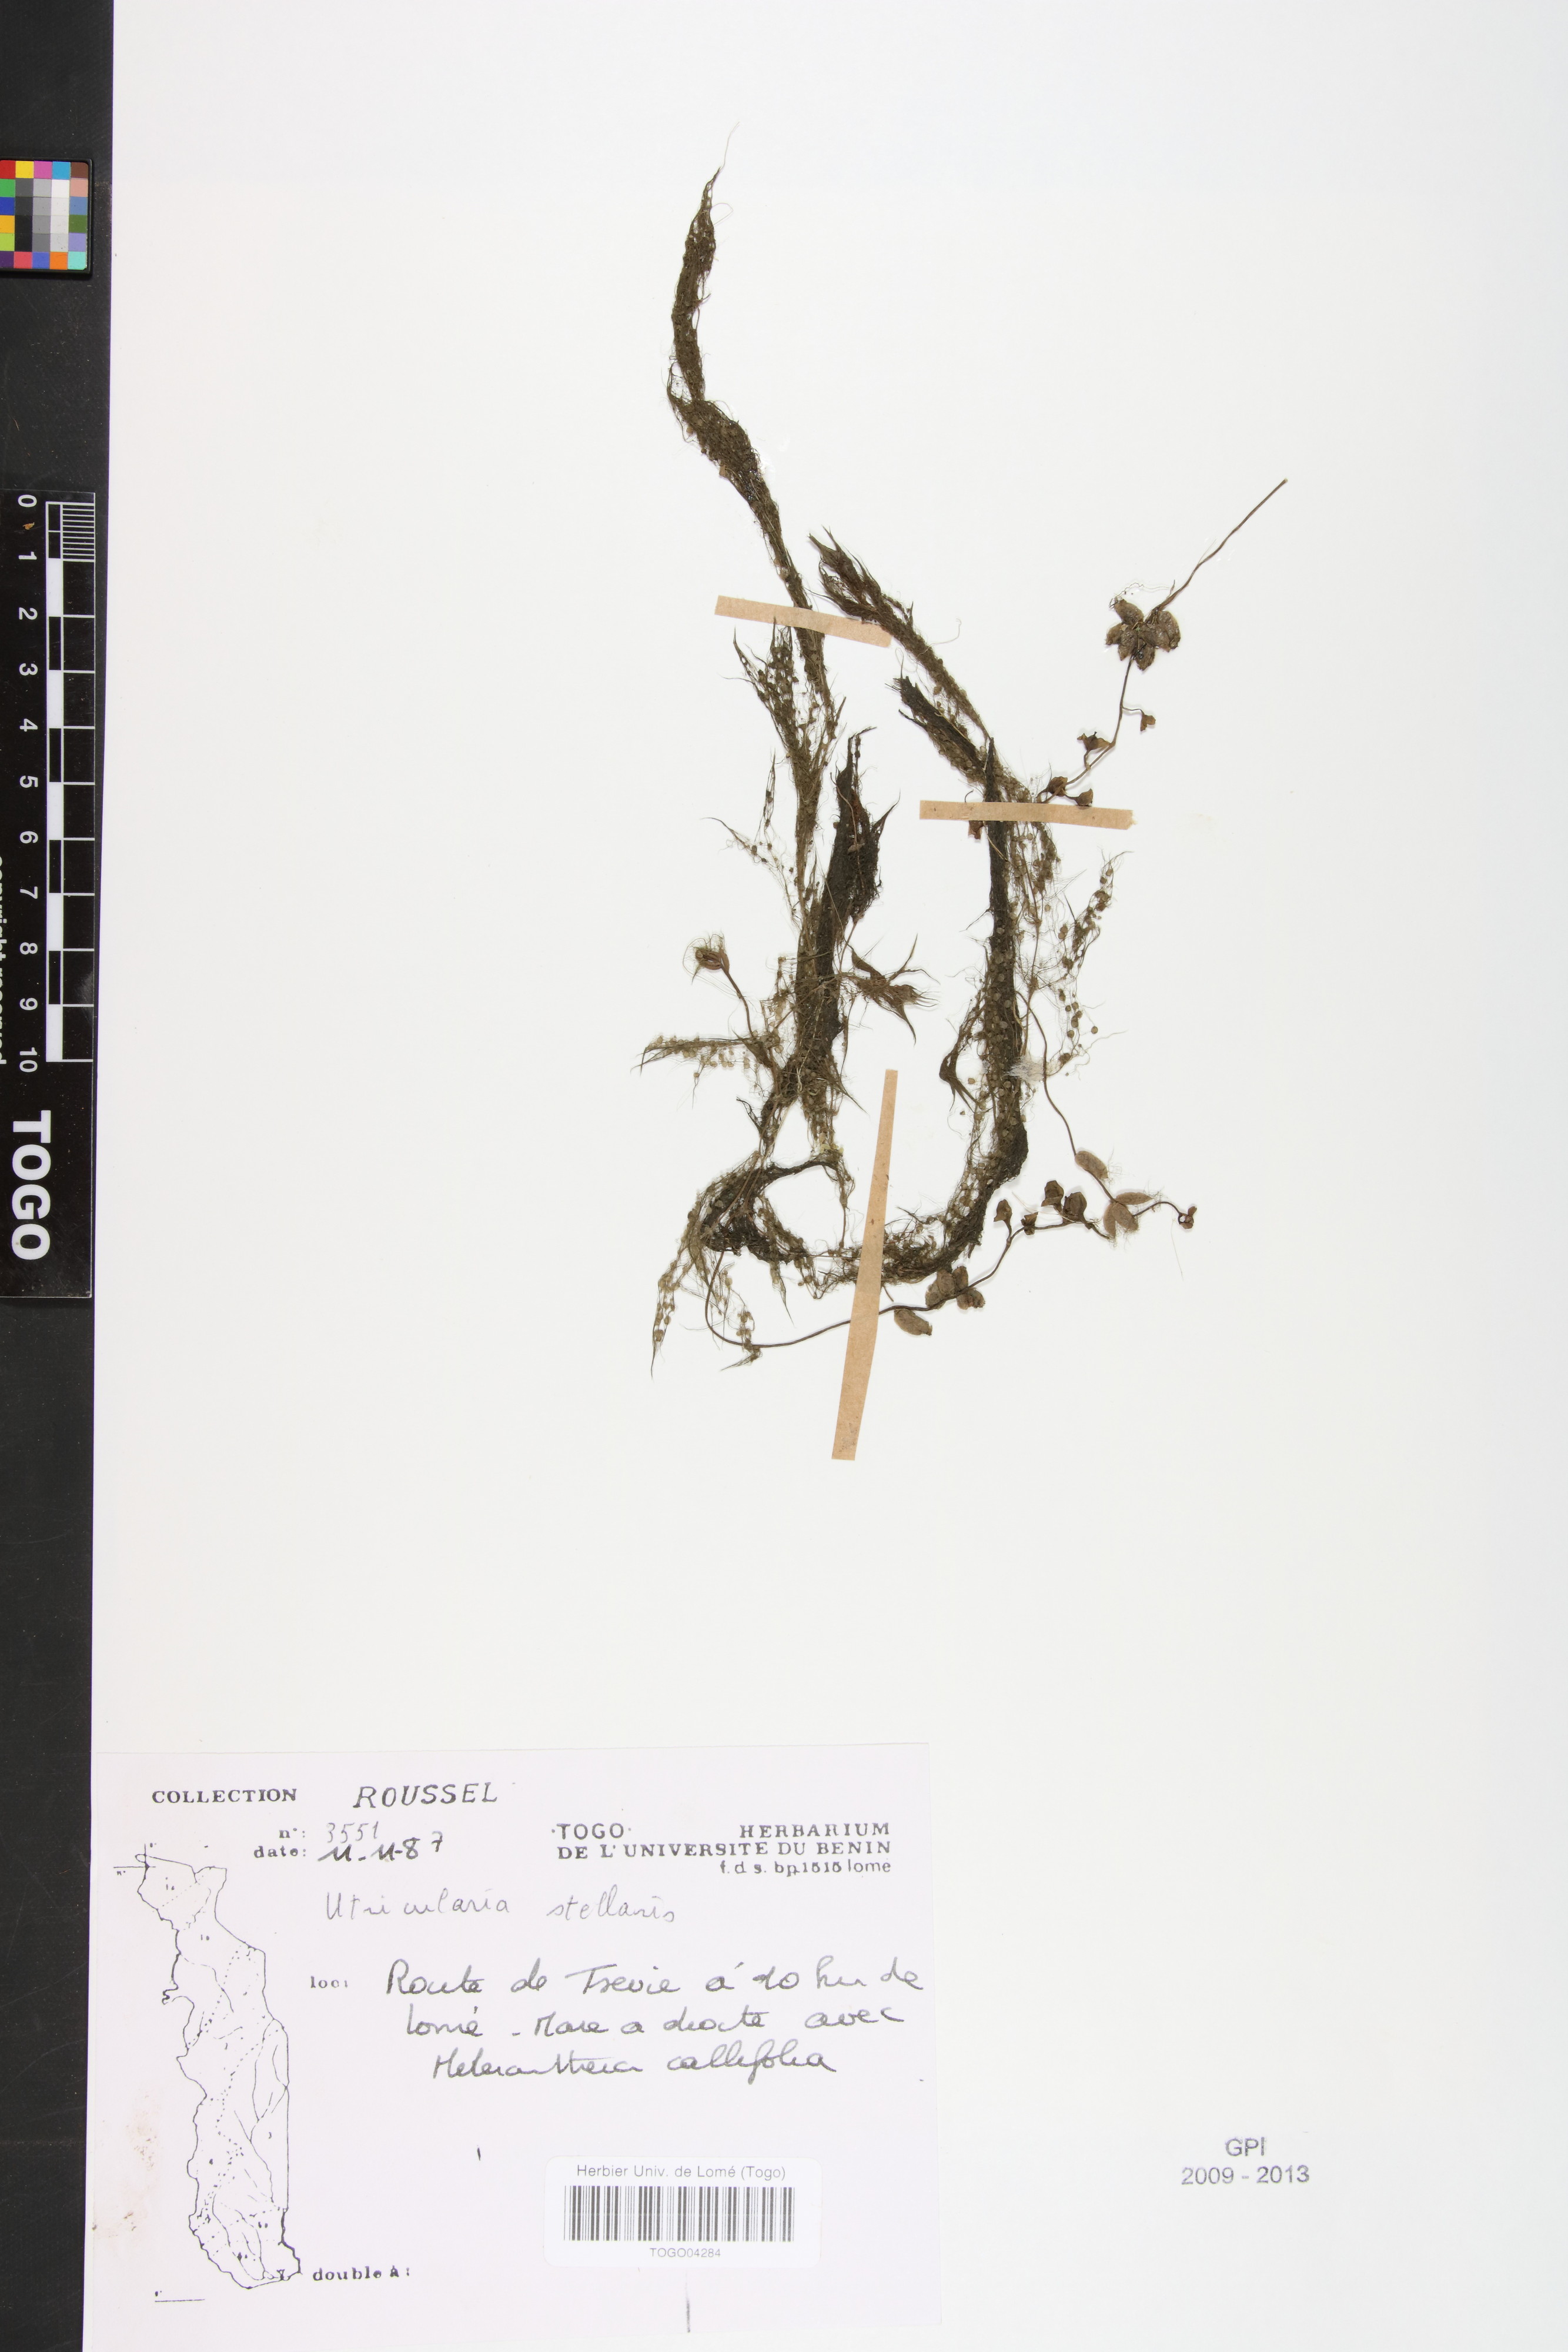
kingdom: Plantae
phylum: Tracheophyta
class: Magnoliopsida
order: Lamiales
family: Lentibulariaceae
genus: Utricularia
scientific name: Utricularia stellaris
